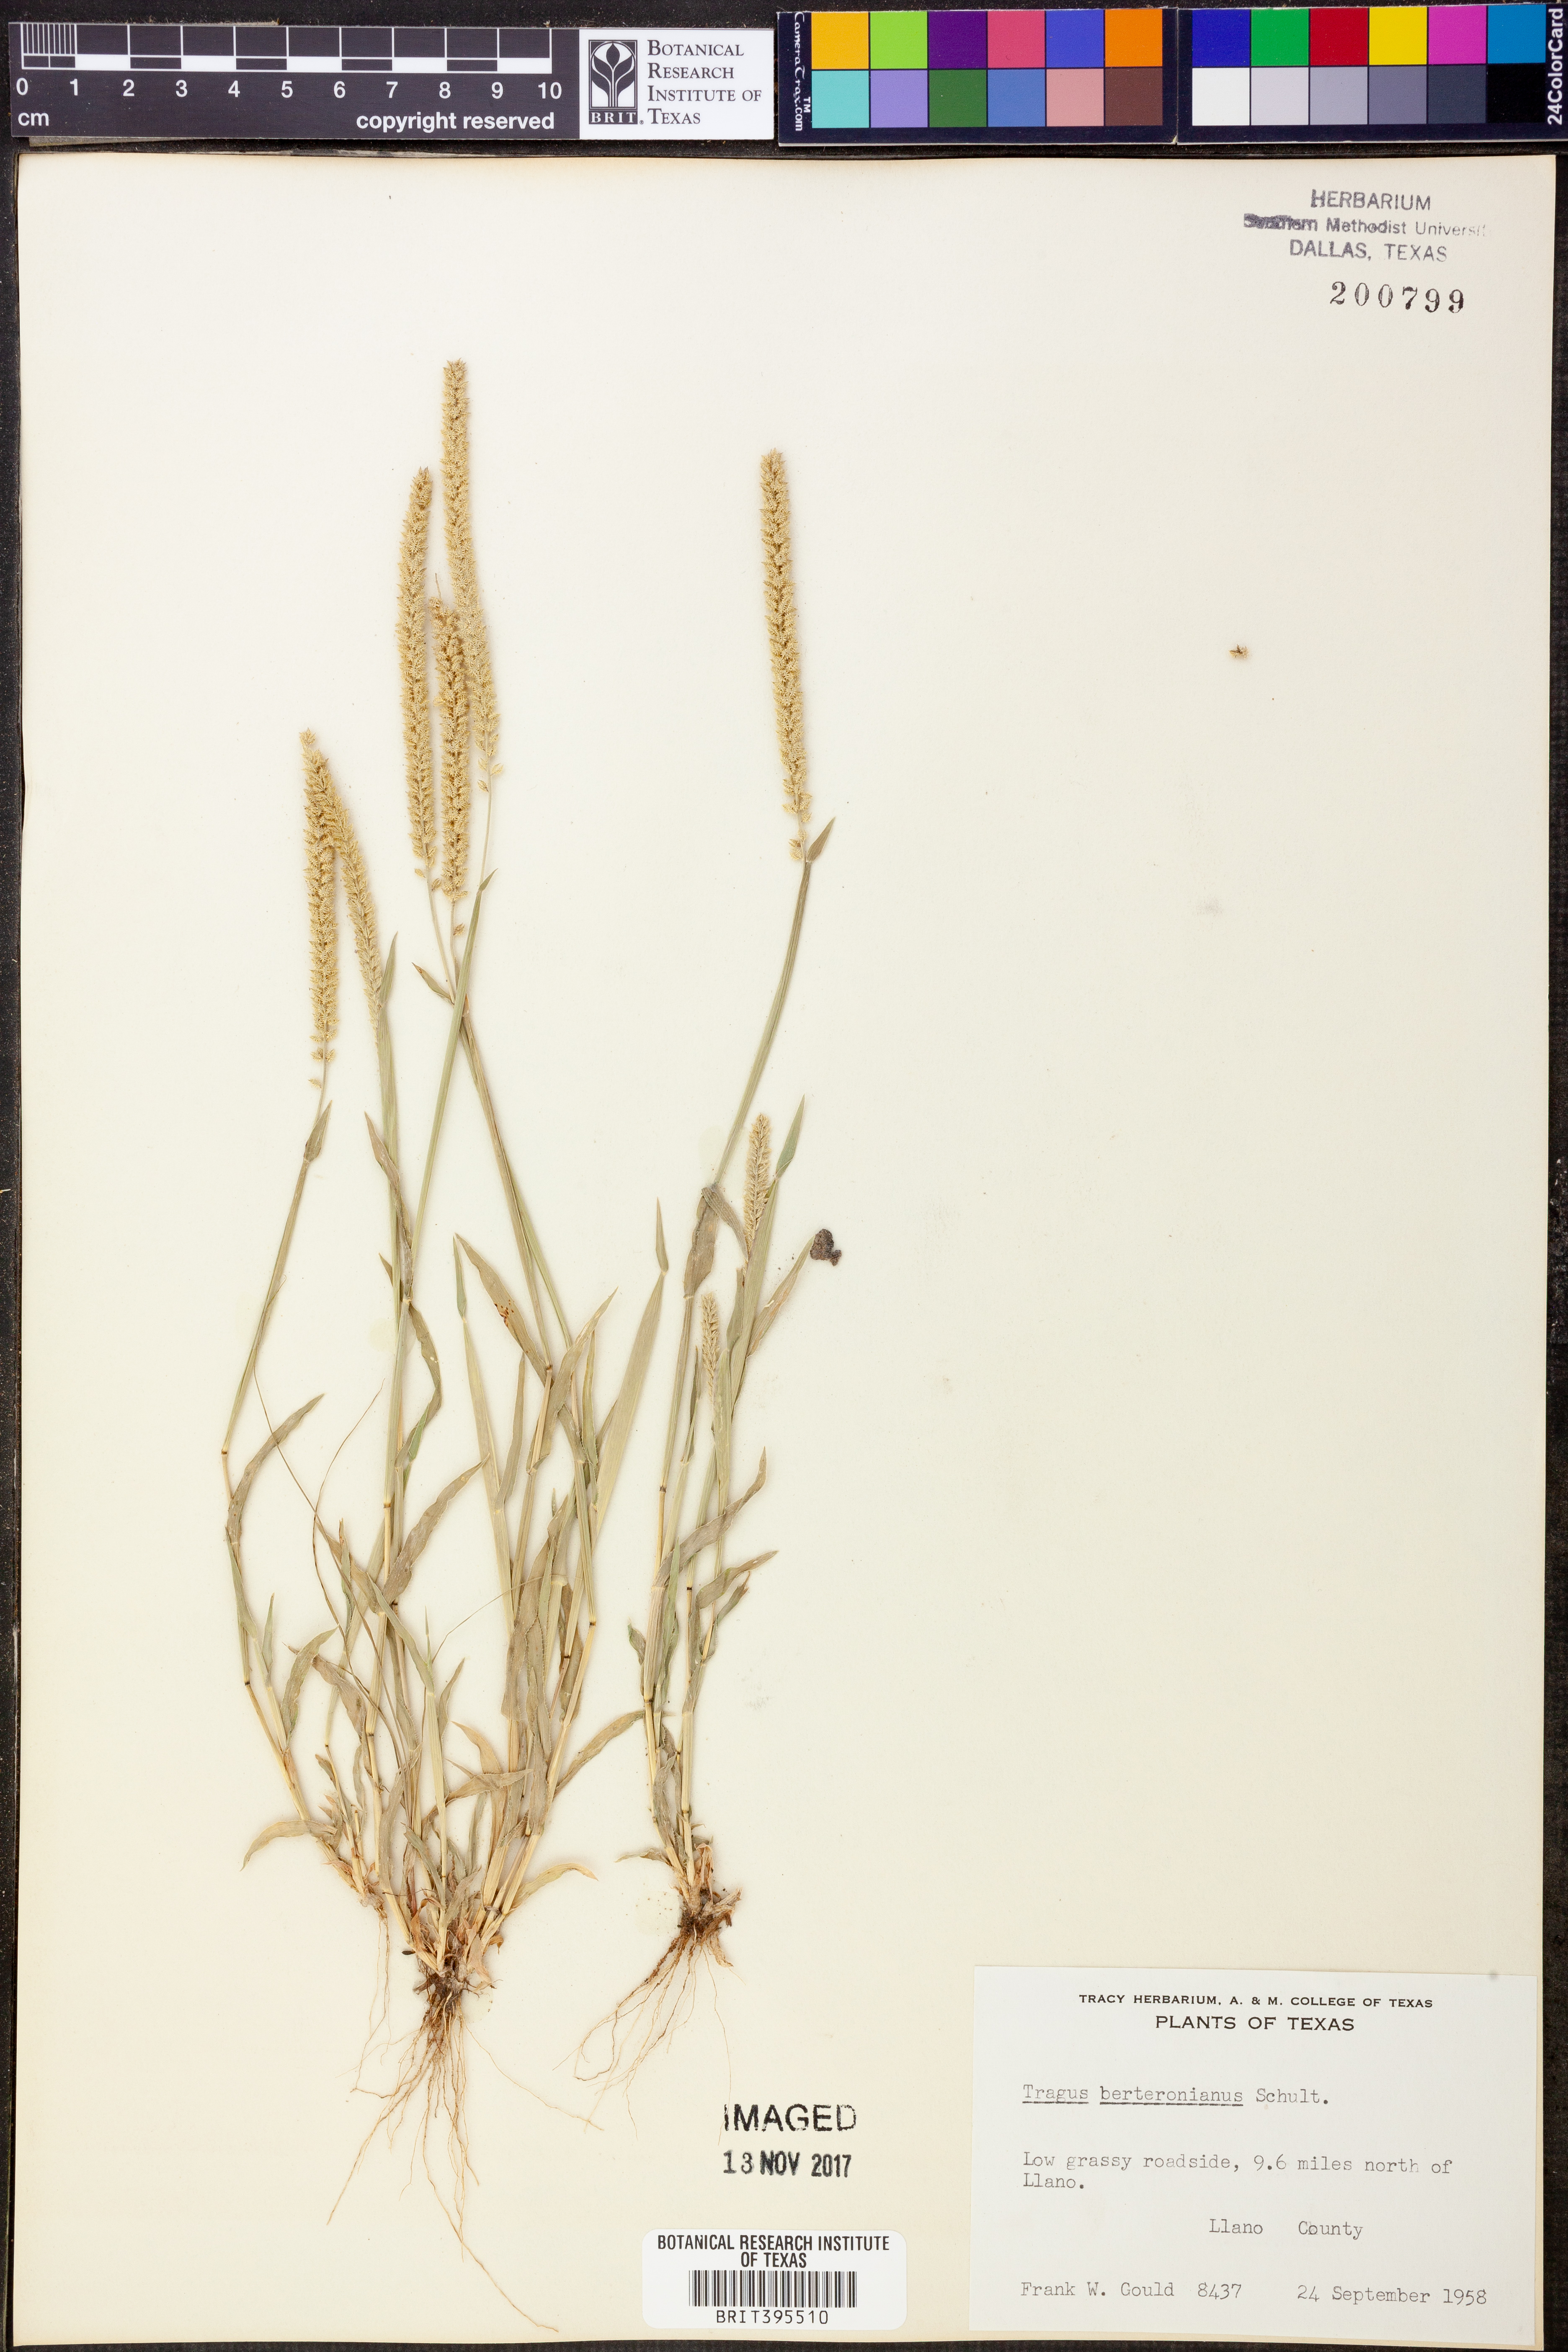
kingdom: Plantae
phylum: Tracheophyta
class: Liliopsida
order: Poales
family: Poaceae
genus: Tragus
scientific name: Tragus berteronianus
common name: African bur-grass
